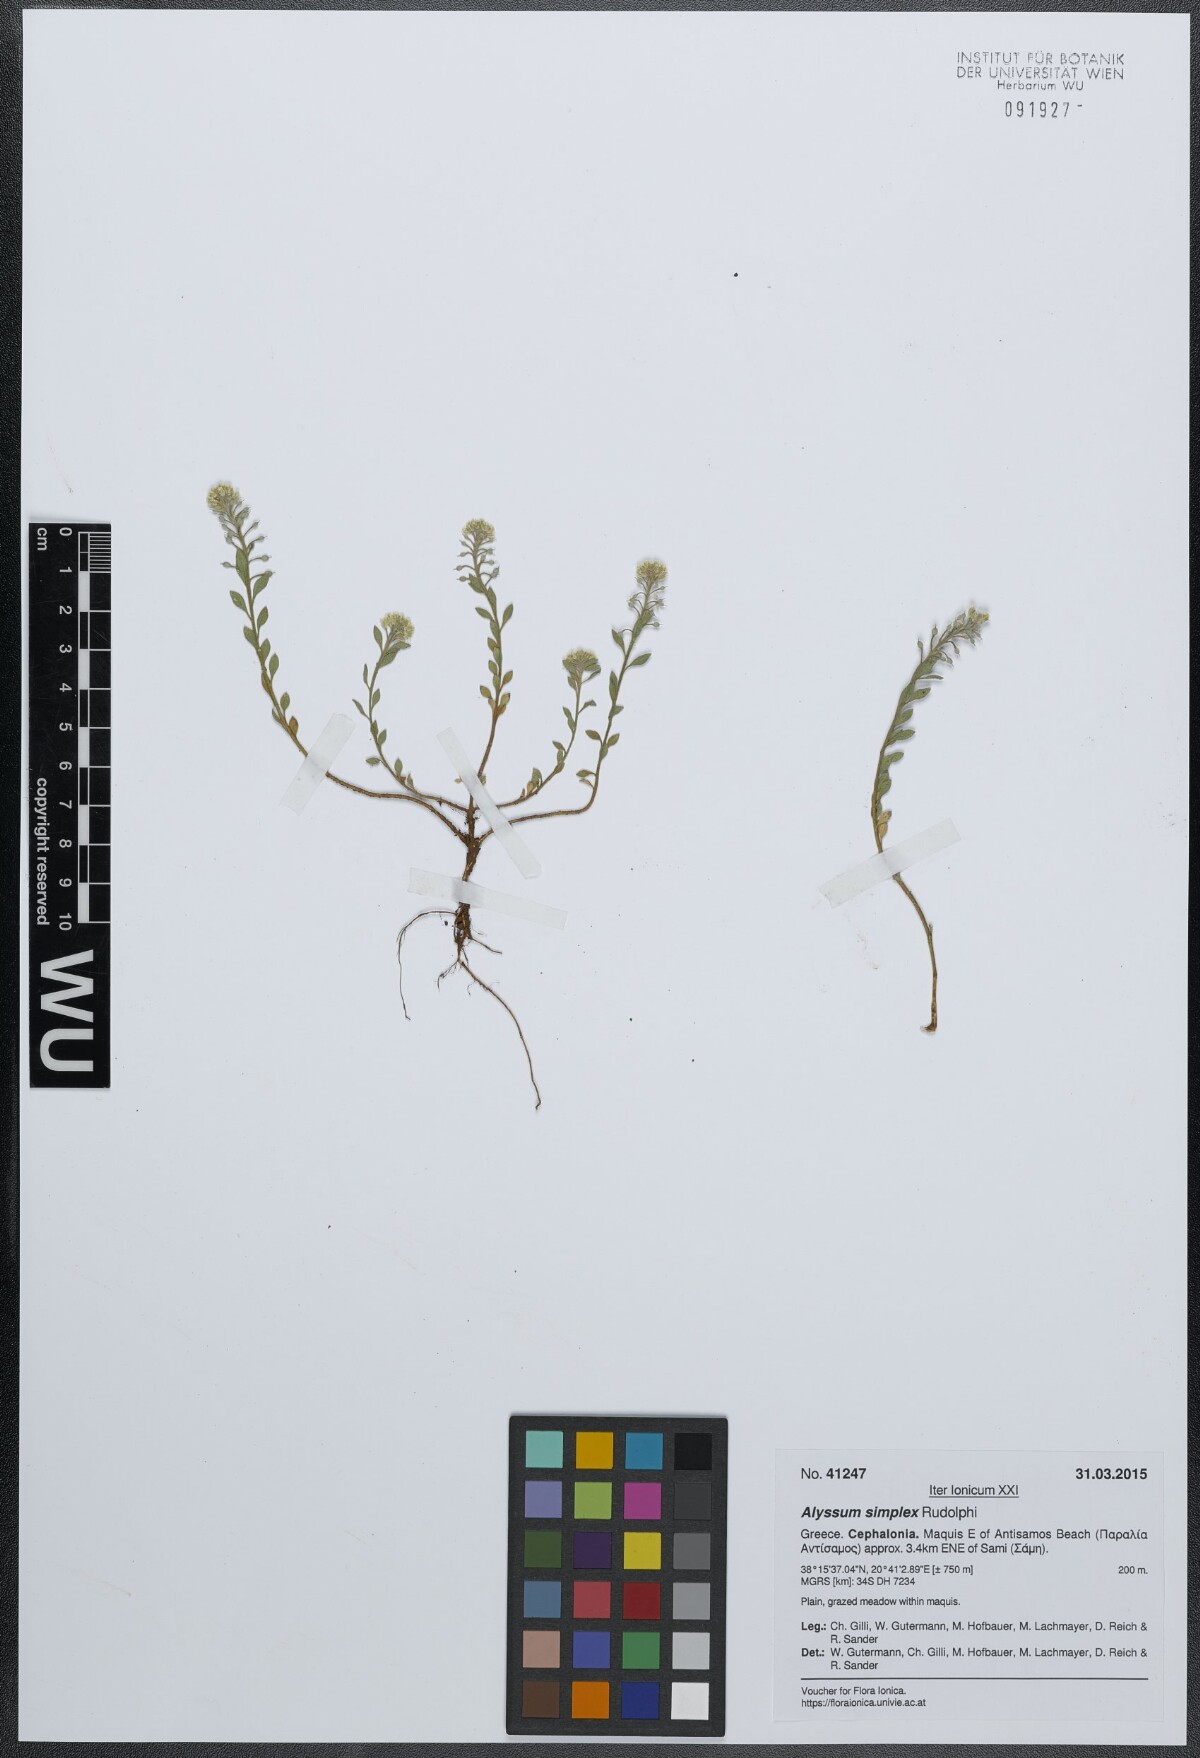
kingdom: Plantae
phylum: Tracheophyta
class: Magnoliopsida
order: Brassicales
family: Brassicaceae
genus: Alyssum
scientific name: Alyssum simplex
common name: Alyssum
